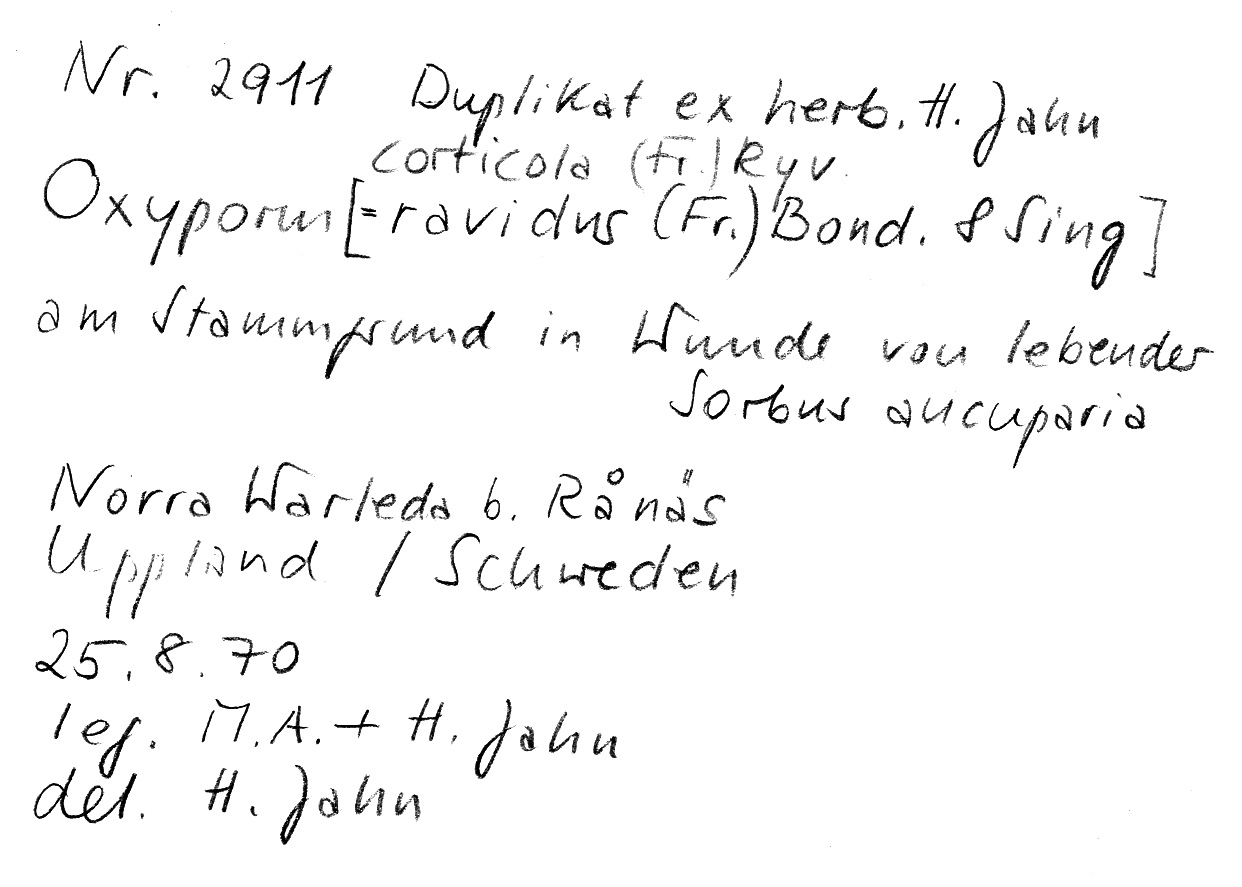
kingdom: Plantae
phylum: Tracheophyta
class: Magnoliopsida
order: Rosales
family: Rosaceae
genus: Sorbus
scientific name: Sorbus aucuparia
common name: Rowan
